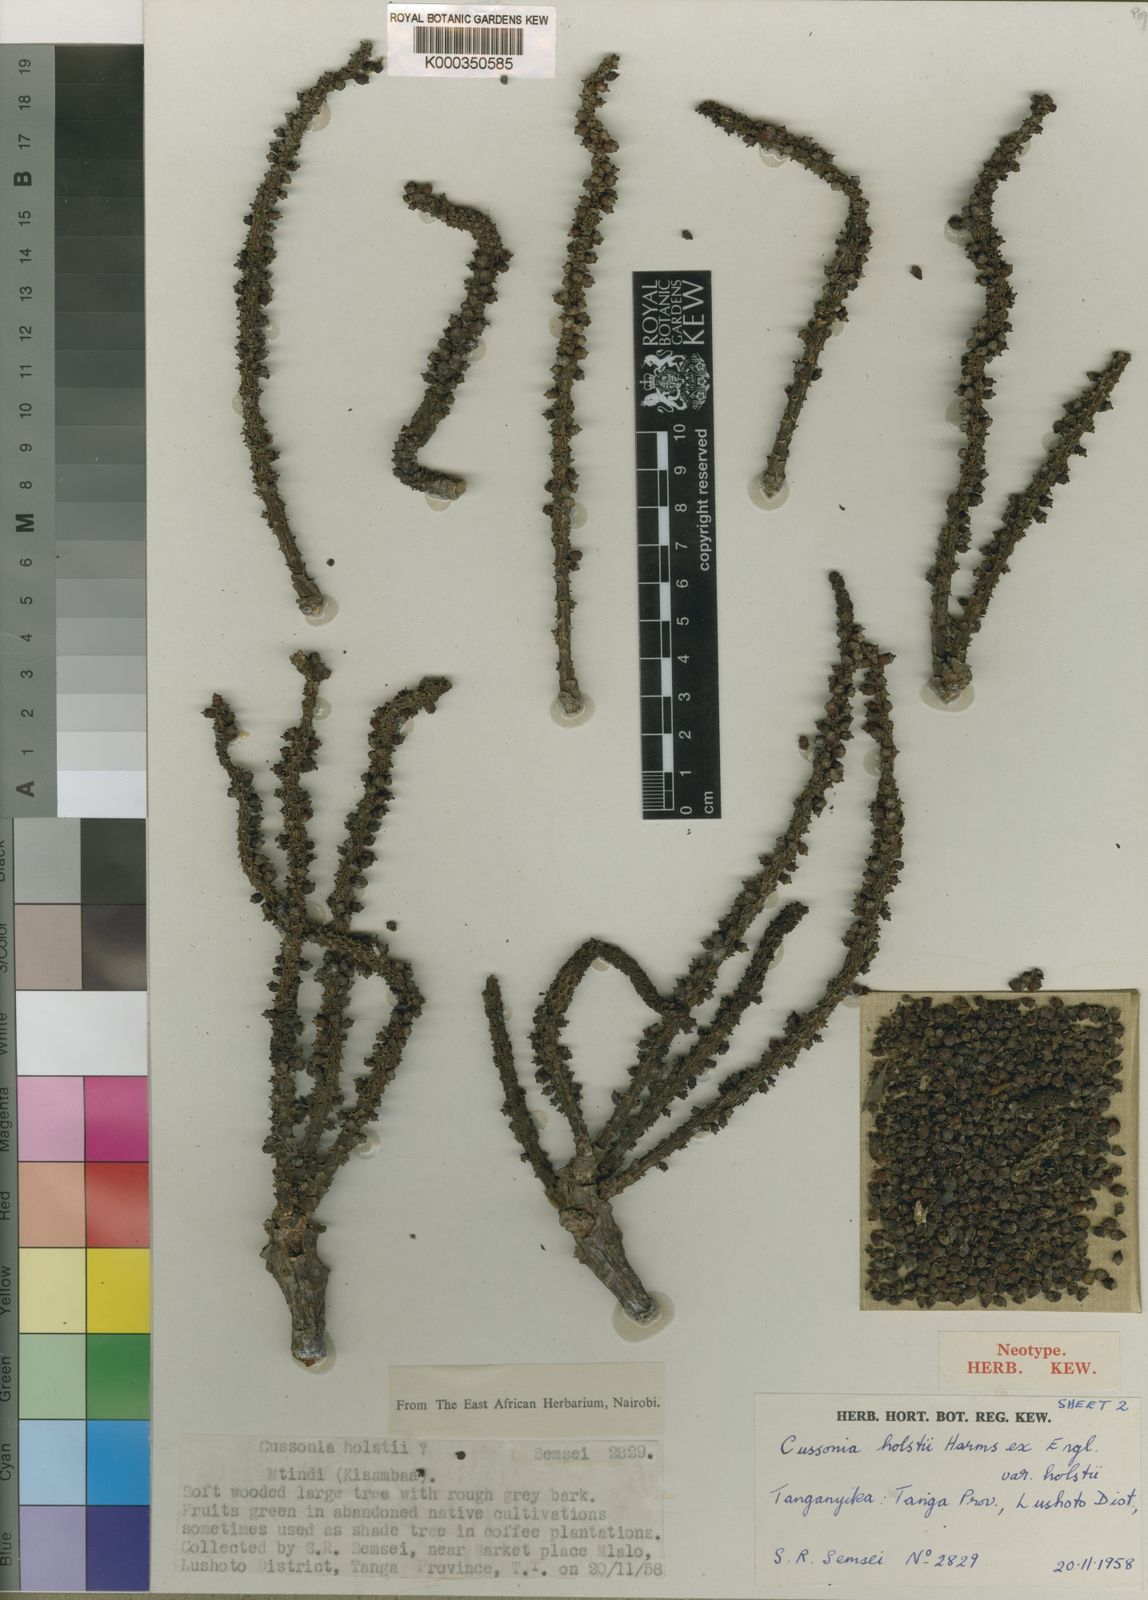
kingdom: Plantae
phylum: Tracheophyta
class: Magnoliopsida
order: Apiales
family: Araliaceae
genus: Cussonia
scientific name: Cussonia holstii
